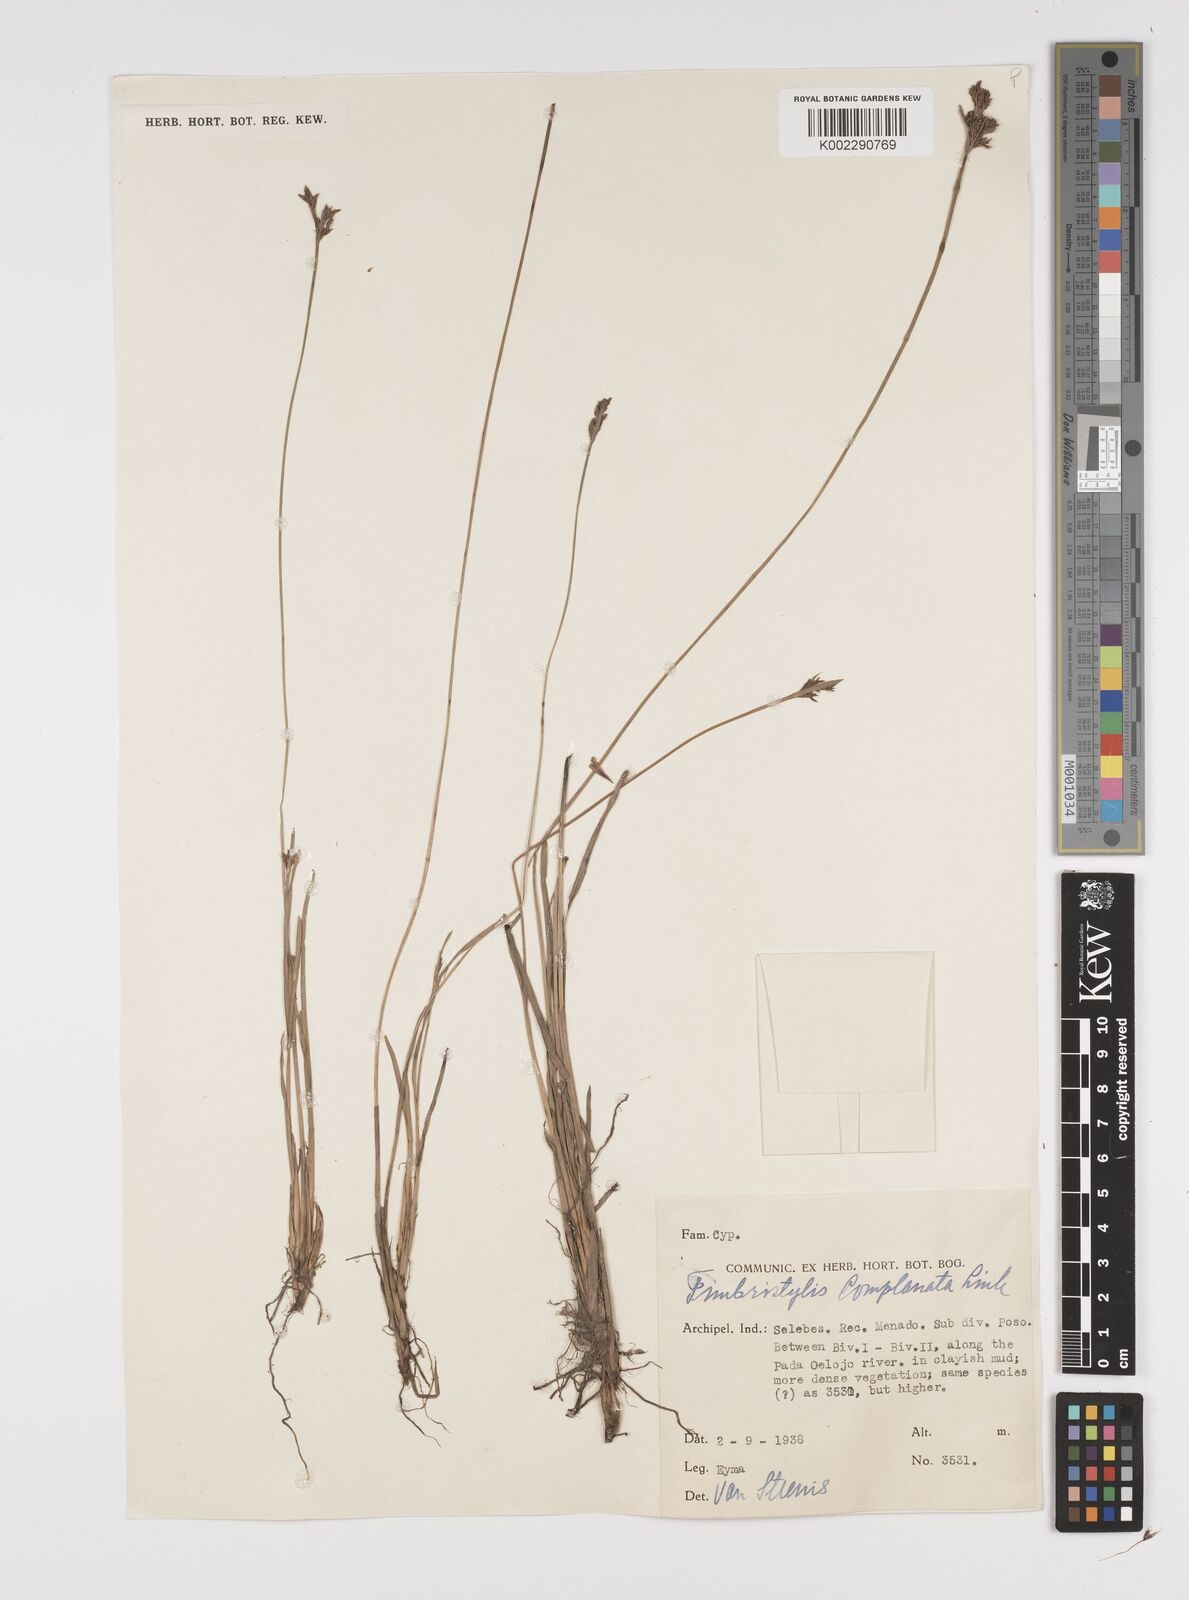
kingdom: Plantae
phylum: Tracheophyta
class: Liliopsida
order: Poales
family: Cyperaceae
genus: Fimbristylis
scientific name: Fimbristylis complanata
